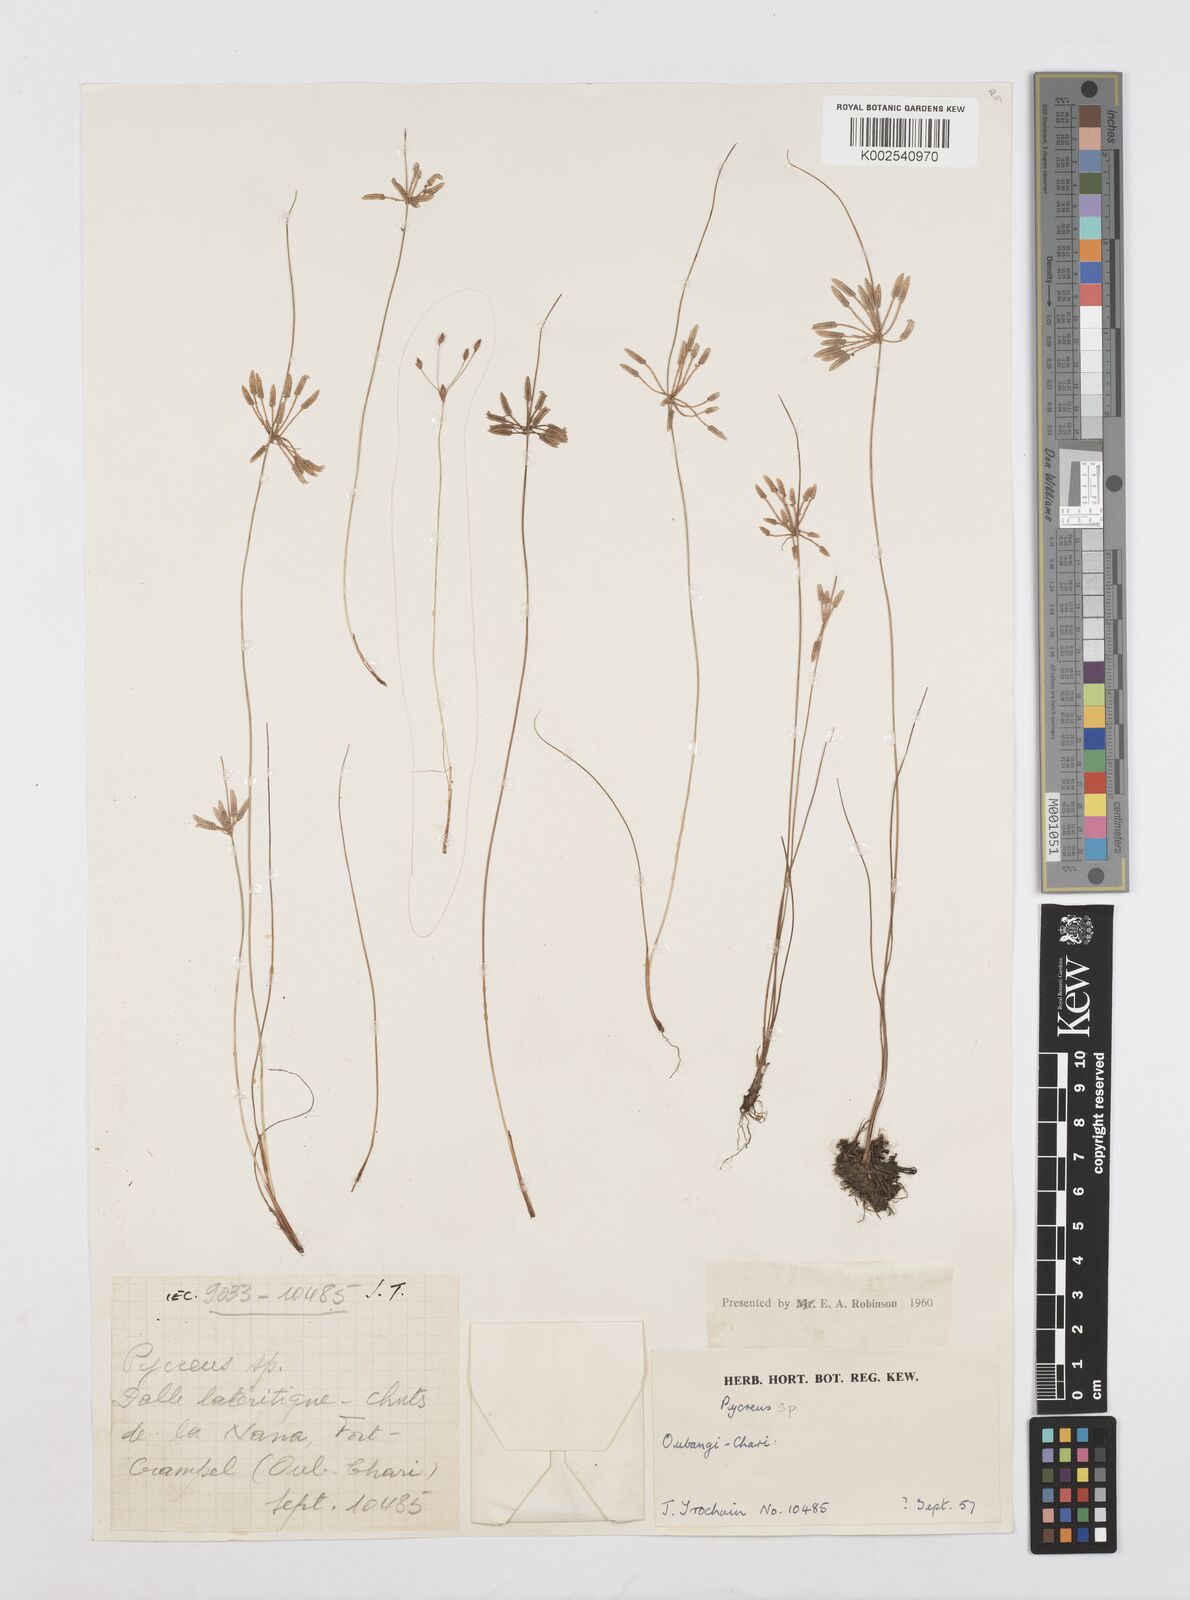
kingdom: Plantae
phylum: Tracheophyta
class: Liliopsida
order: Poales
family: Cyperaceae
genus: Cyperus
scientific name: Cyperus flavescens
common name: Yellow galingale
